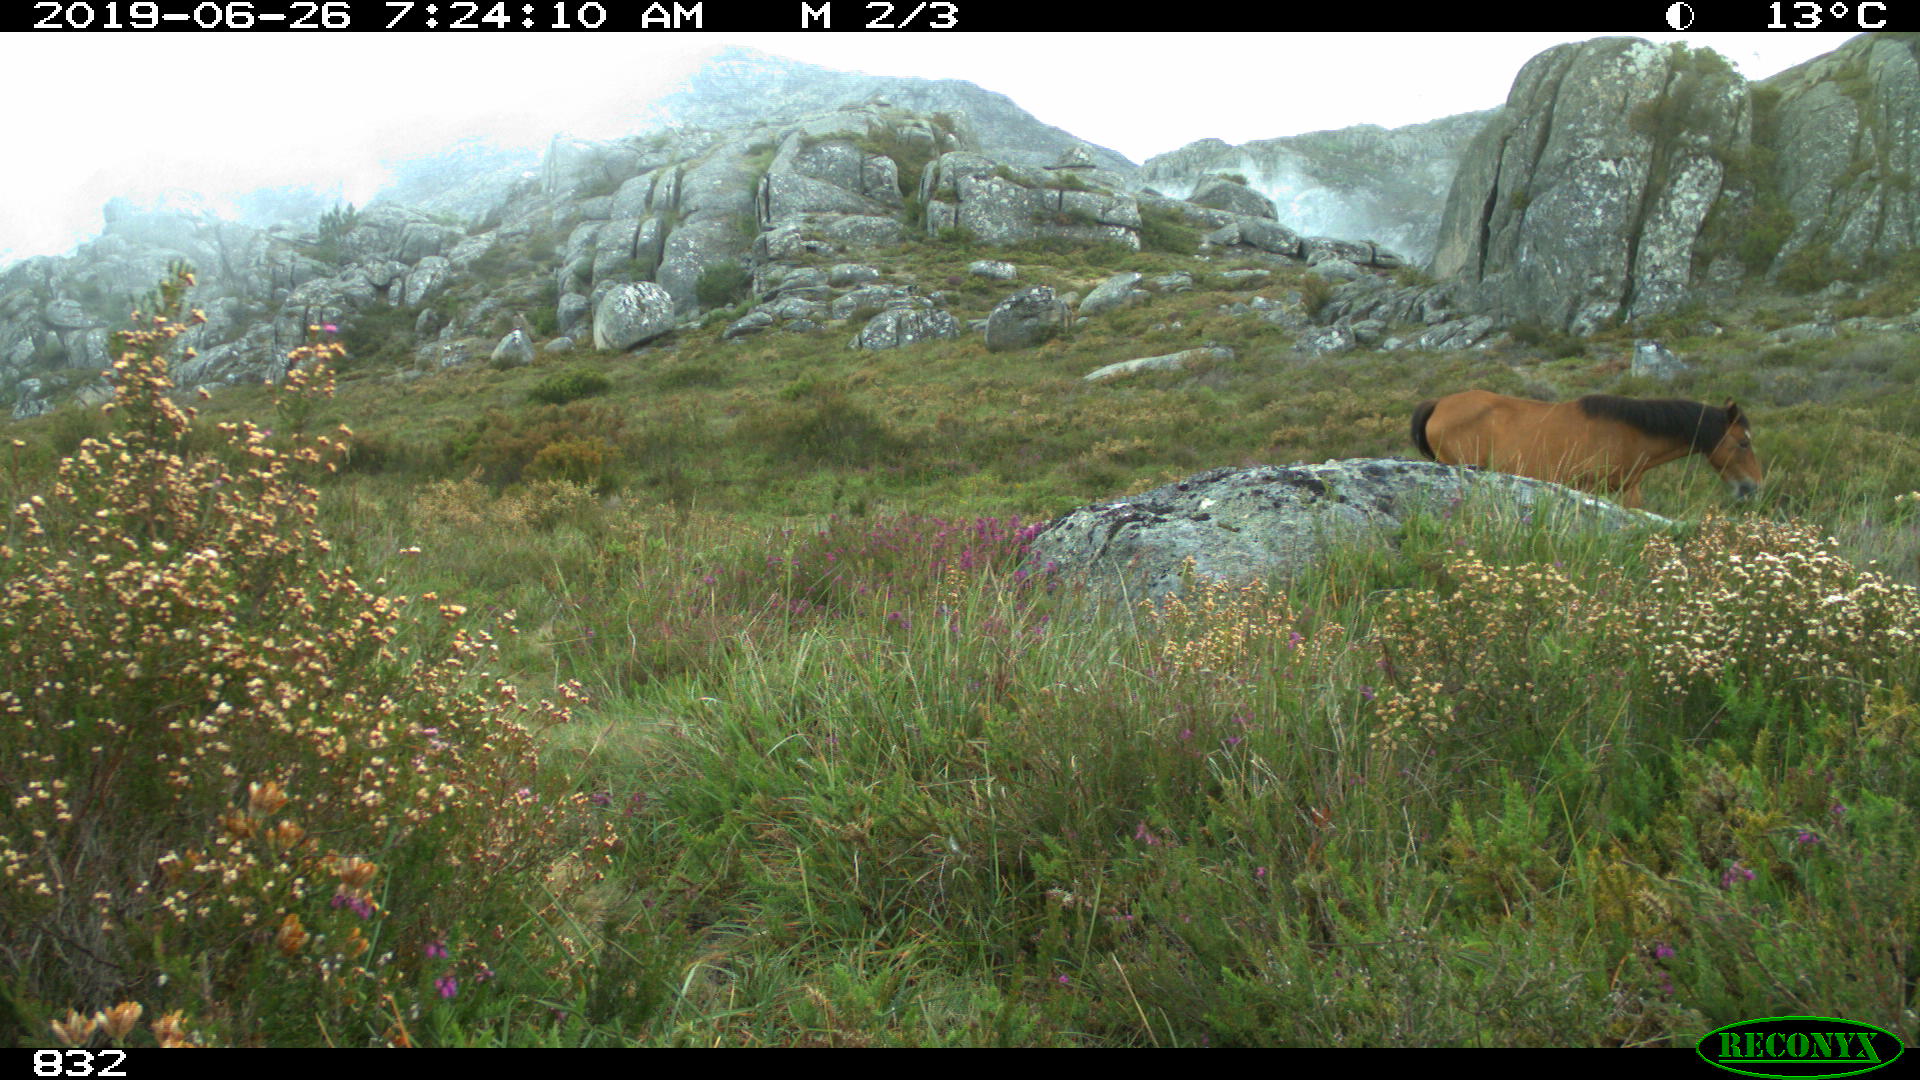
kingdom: Animalia
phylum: Chordata
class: Mammalia
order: Perissodactyla
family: Equidae
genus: Equus
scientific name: Equus caballus
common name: Horse
